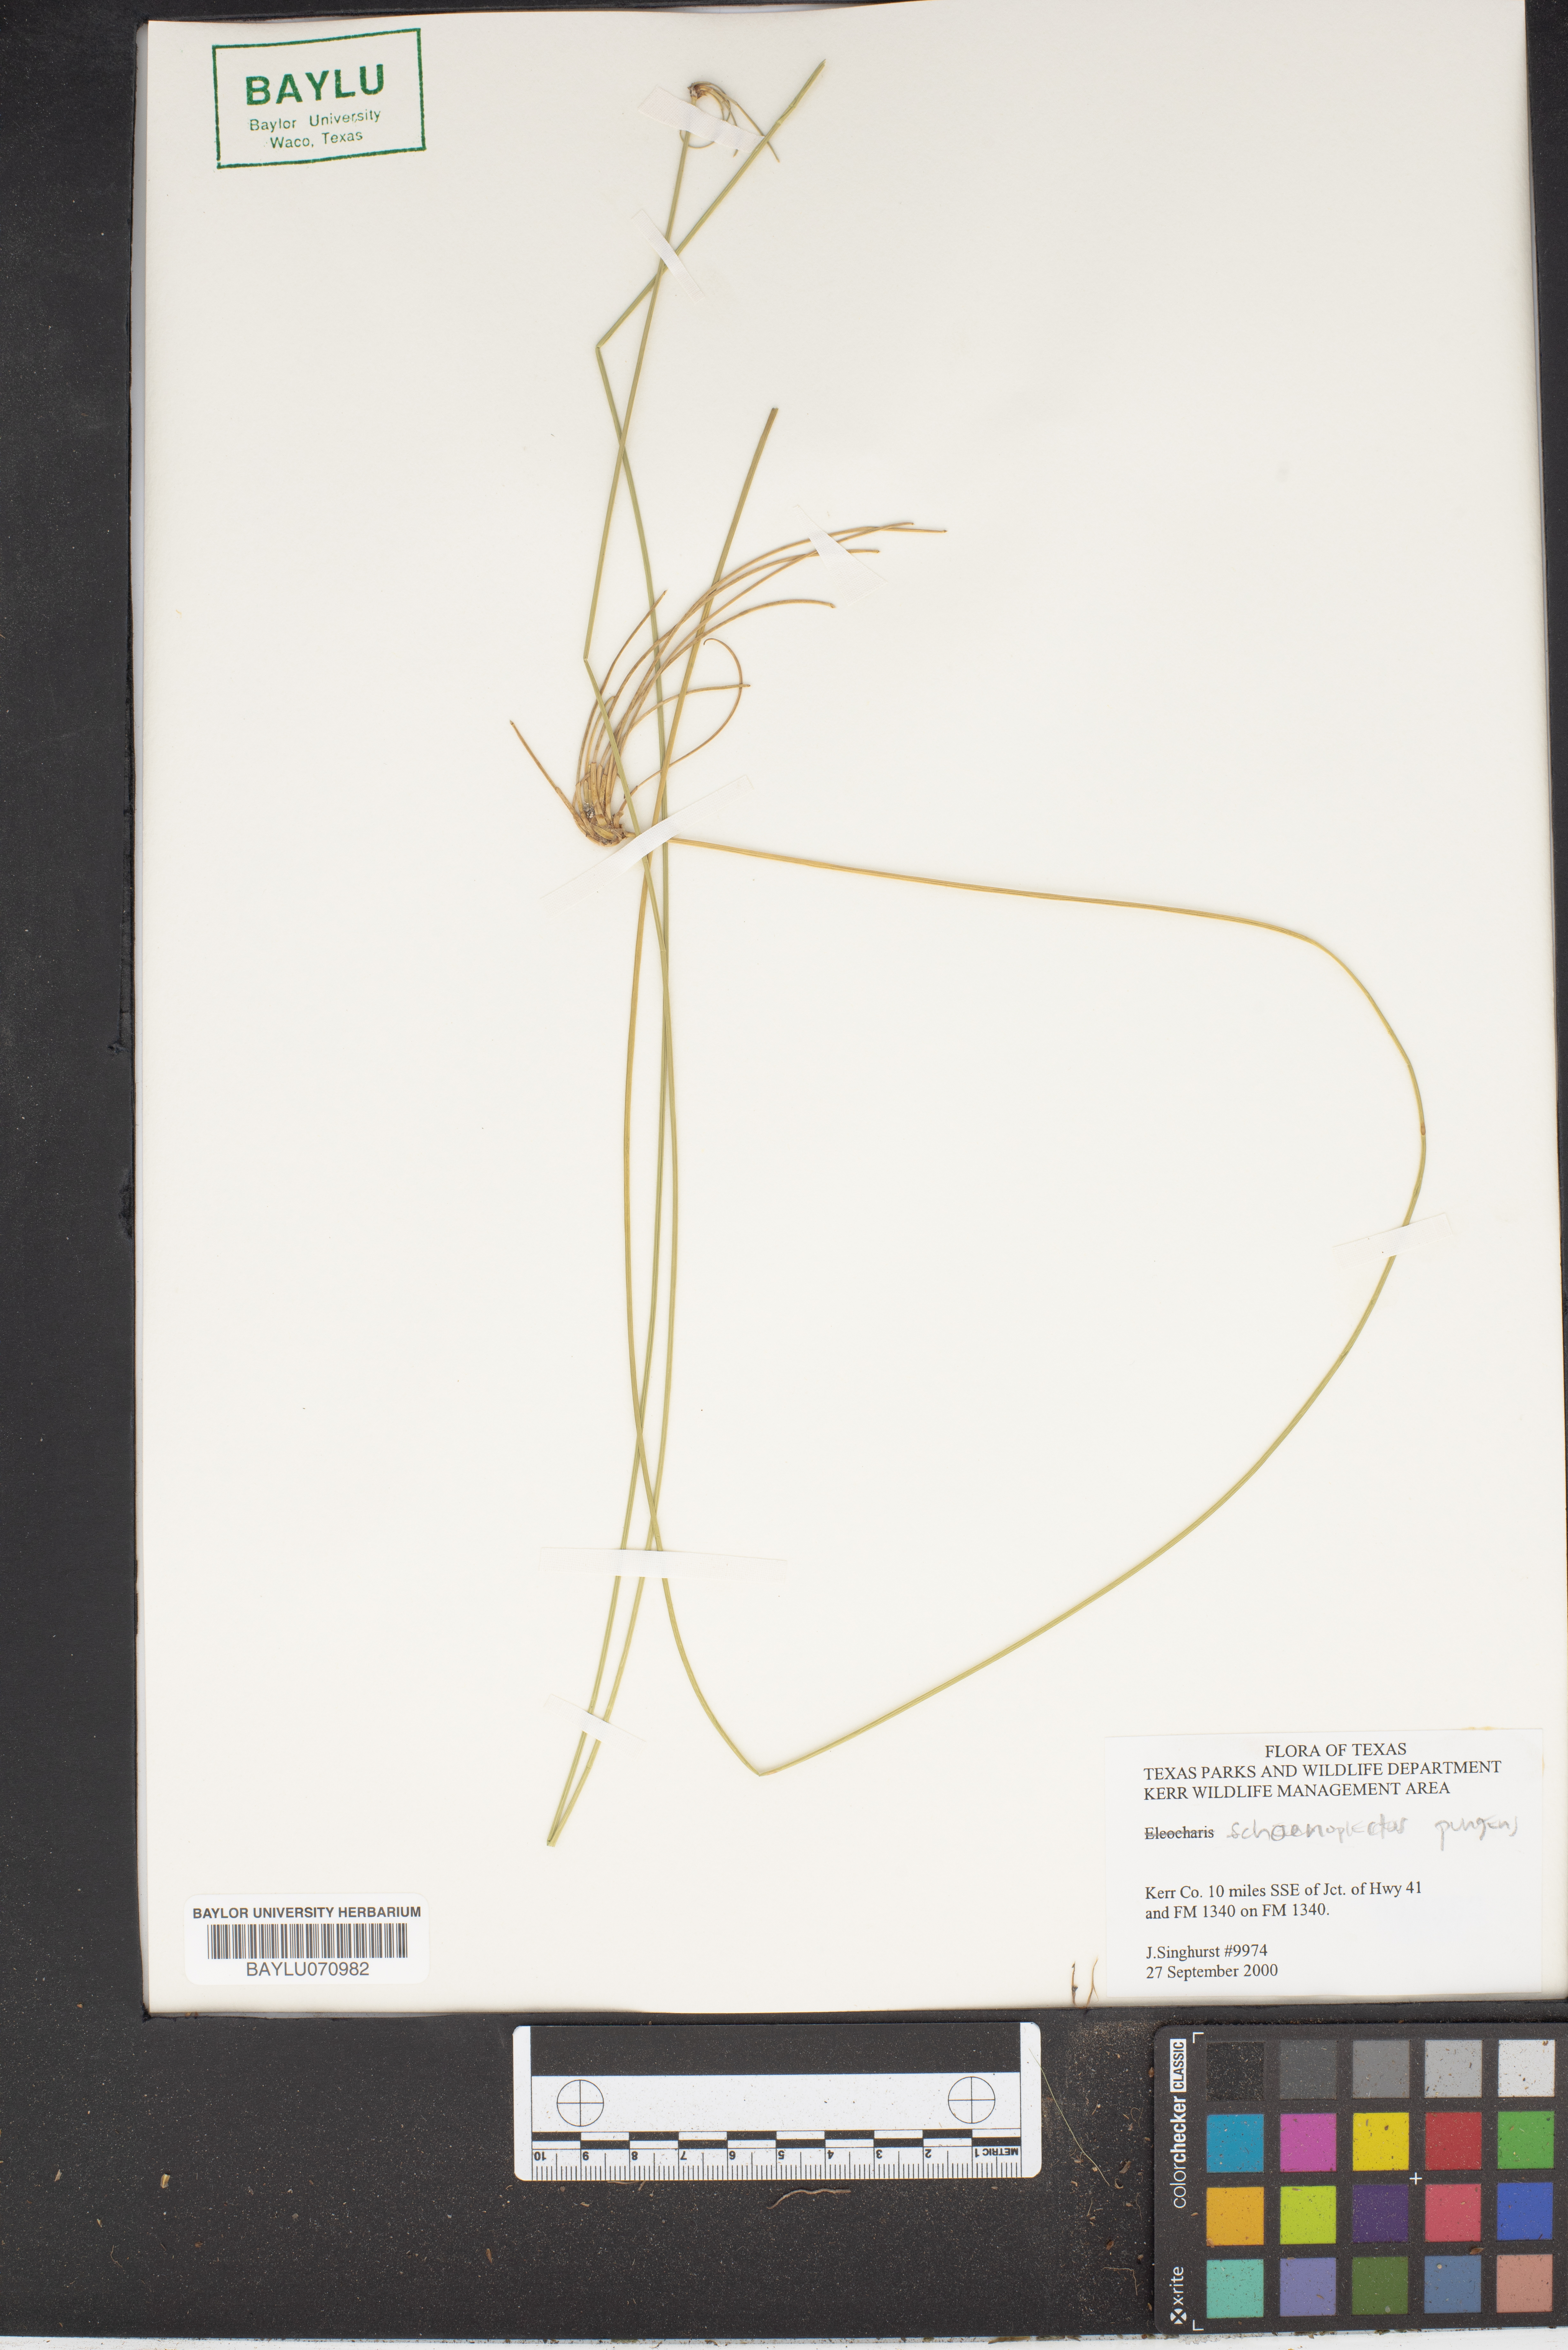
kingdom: Plantae
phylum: Tracheophyta
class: Liliopsida
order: Poales
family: Cyperaceae
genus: Schoenoplectus
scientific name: Schoenoplectus pungens
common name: Sharp club-rush
